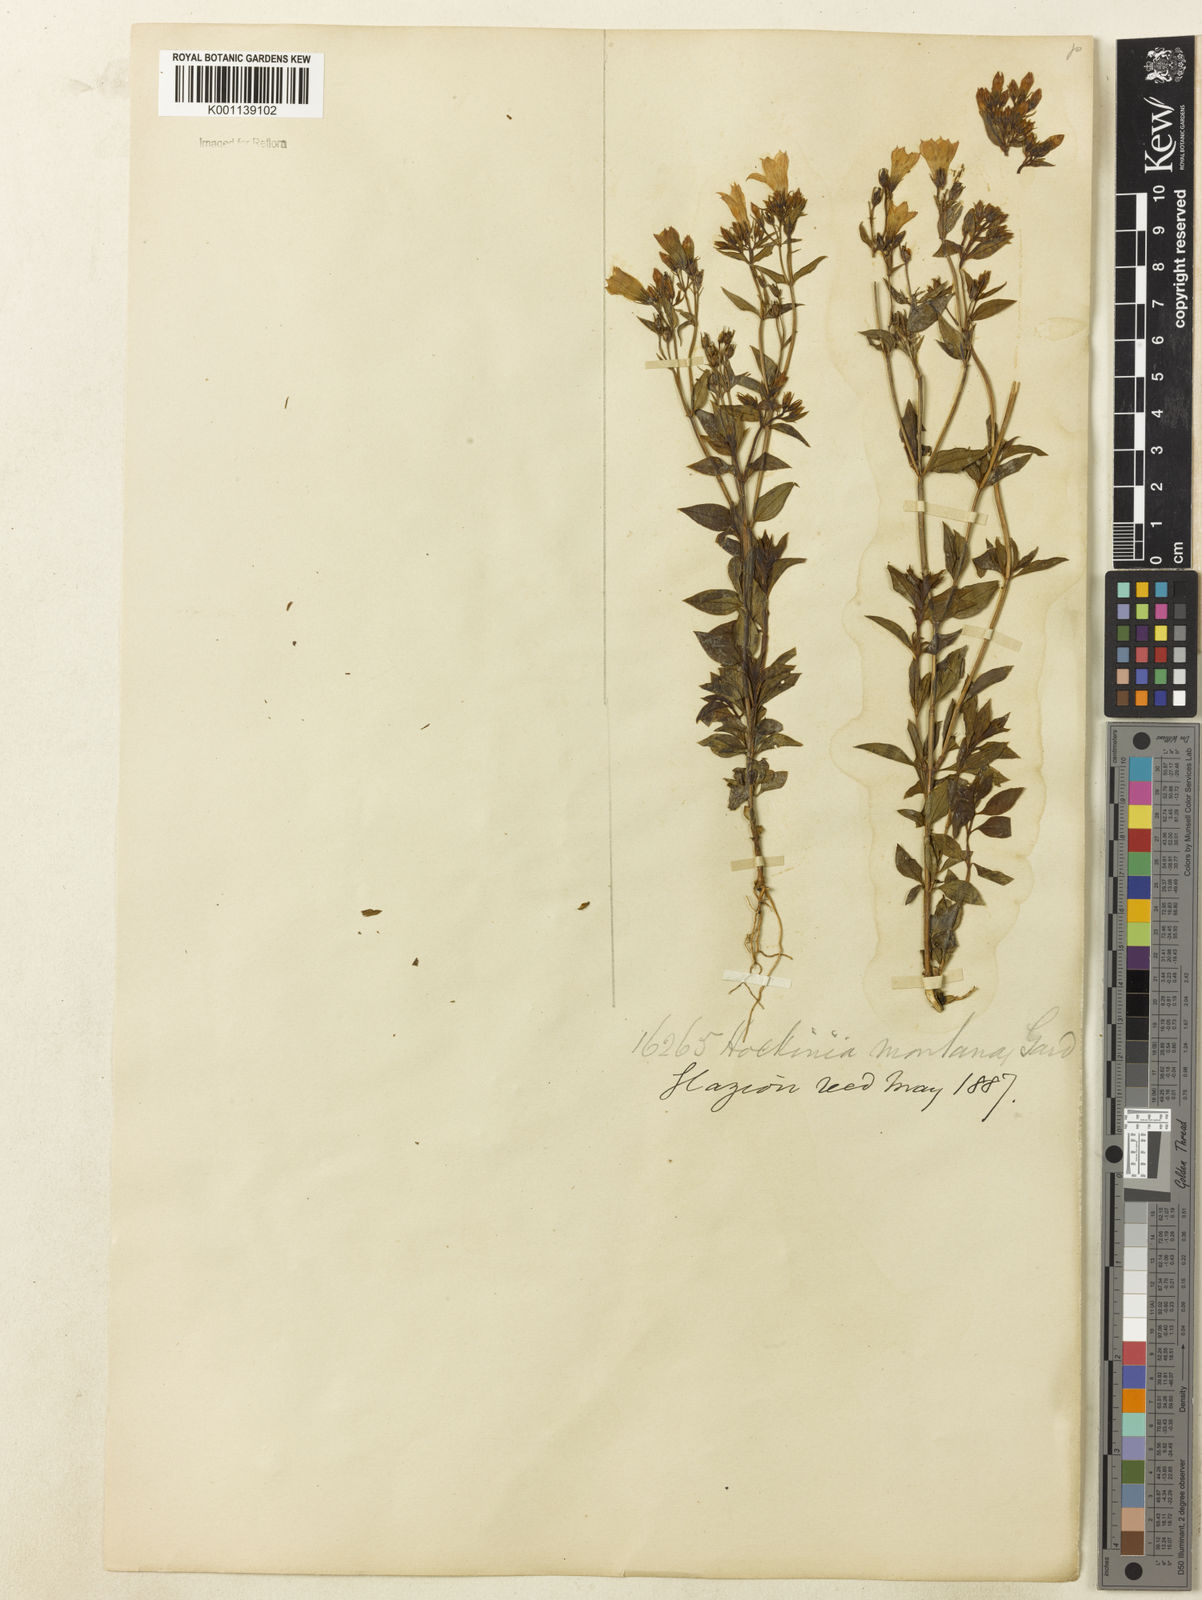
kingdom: Plantae
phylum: Tracheophyta
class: Magnoliopsida
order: Gentianales
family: Gentianaceae
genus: Hockinia
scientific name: Hockinia montana
